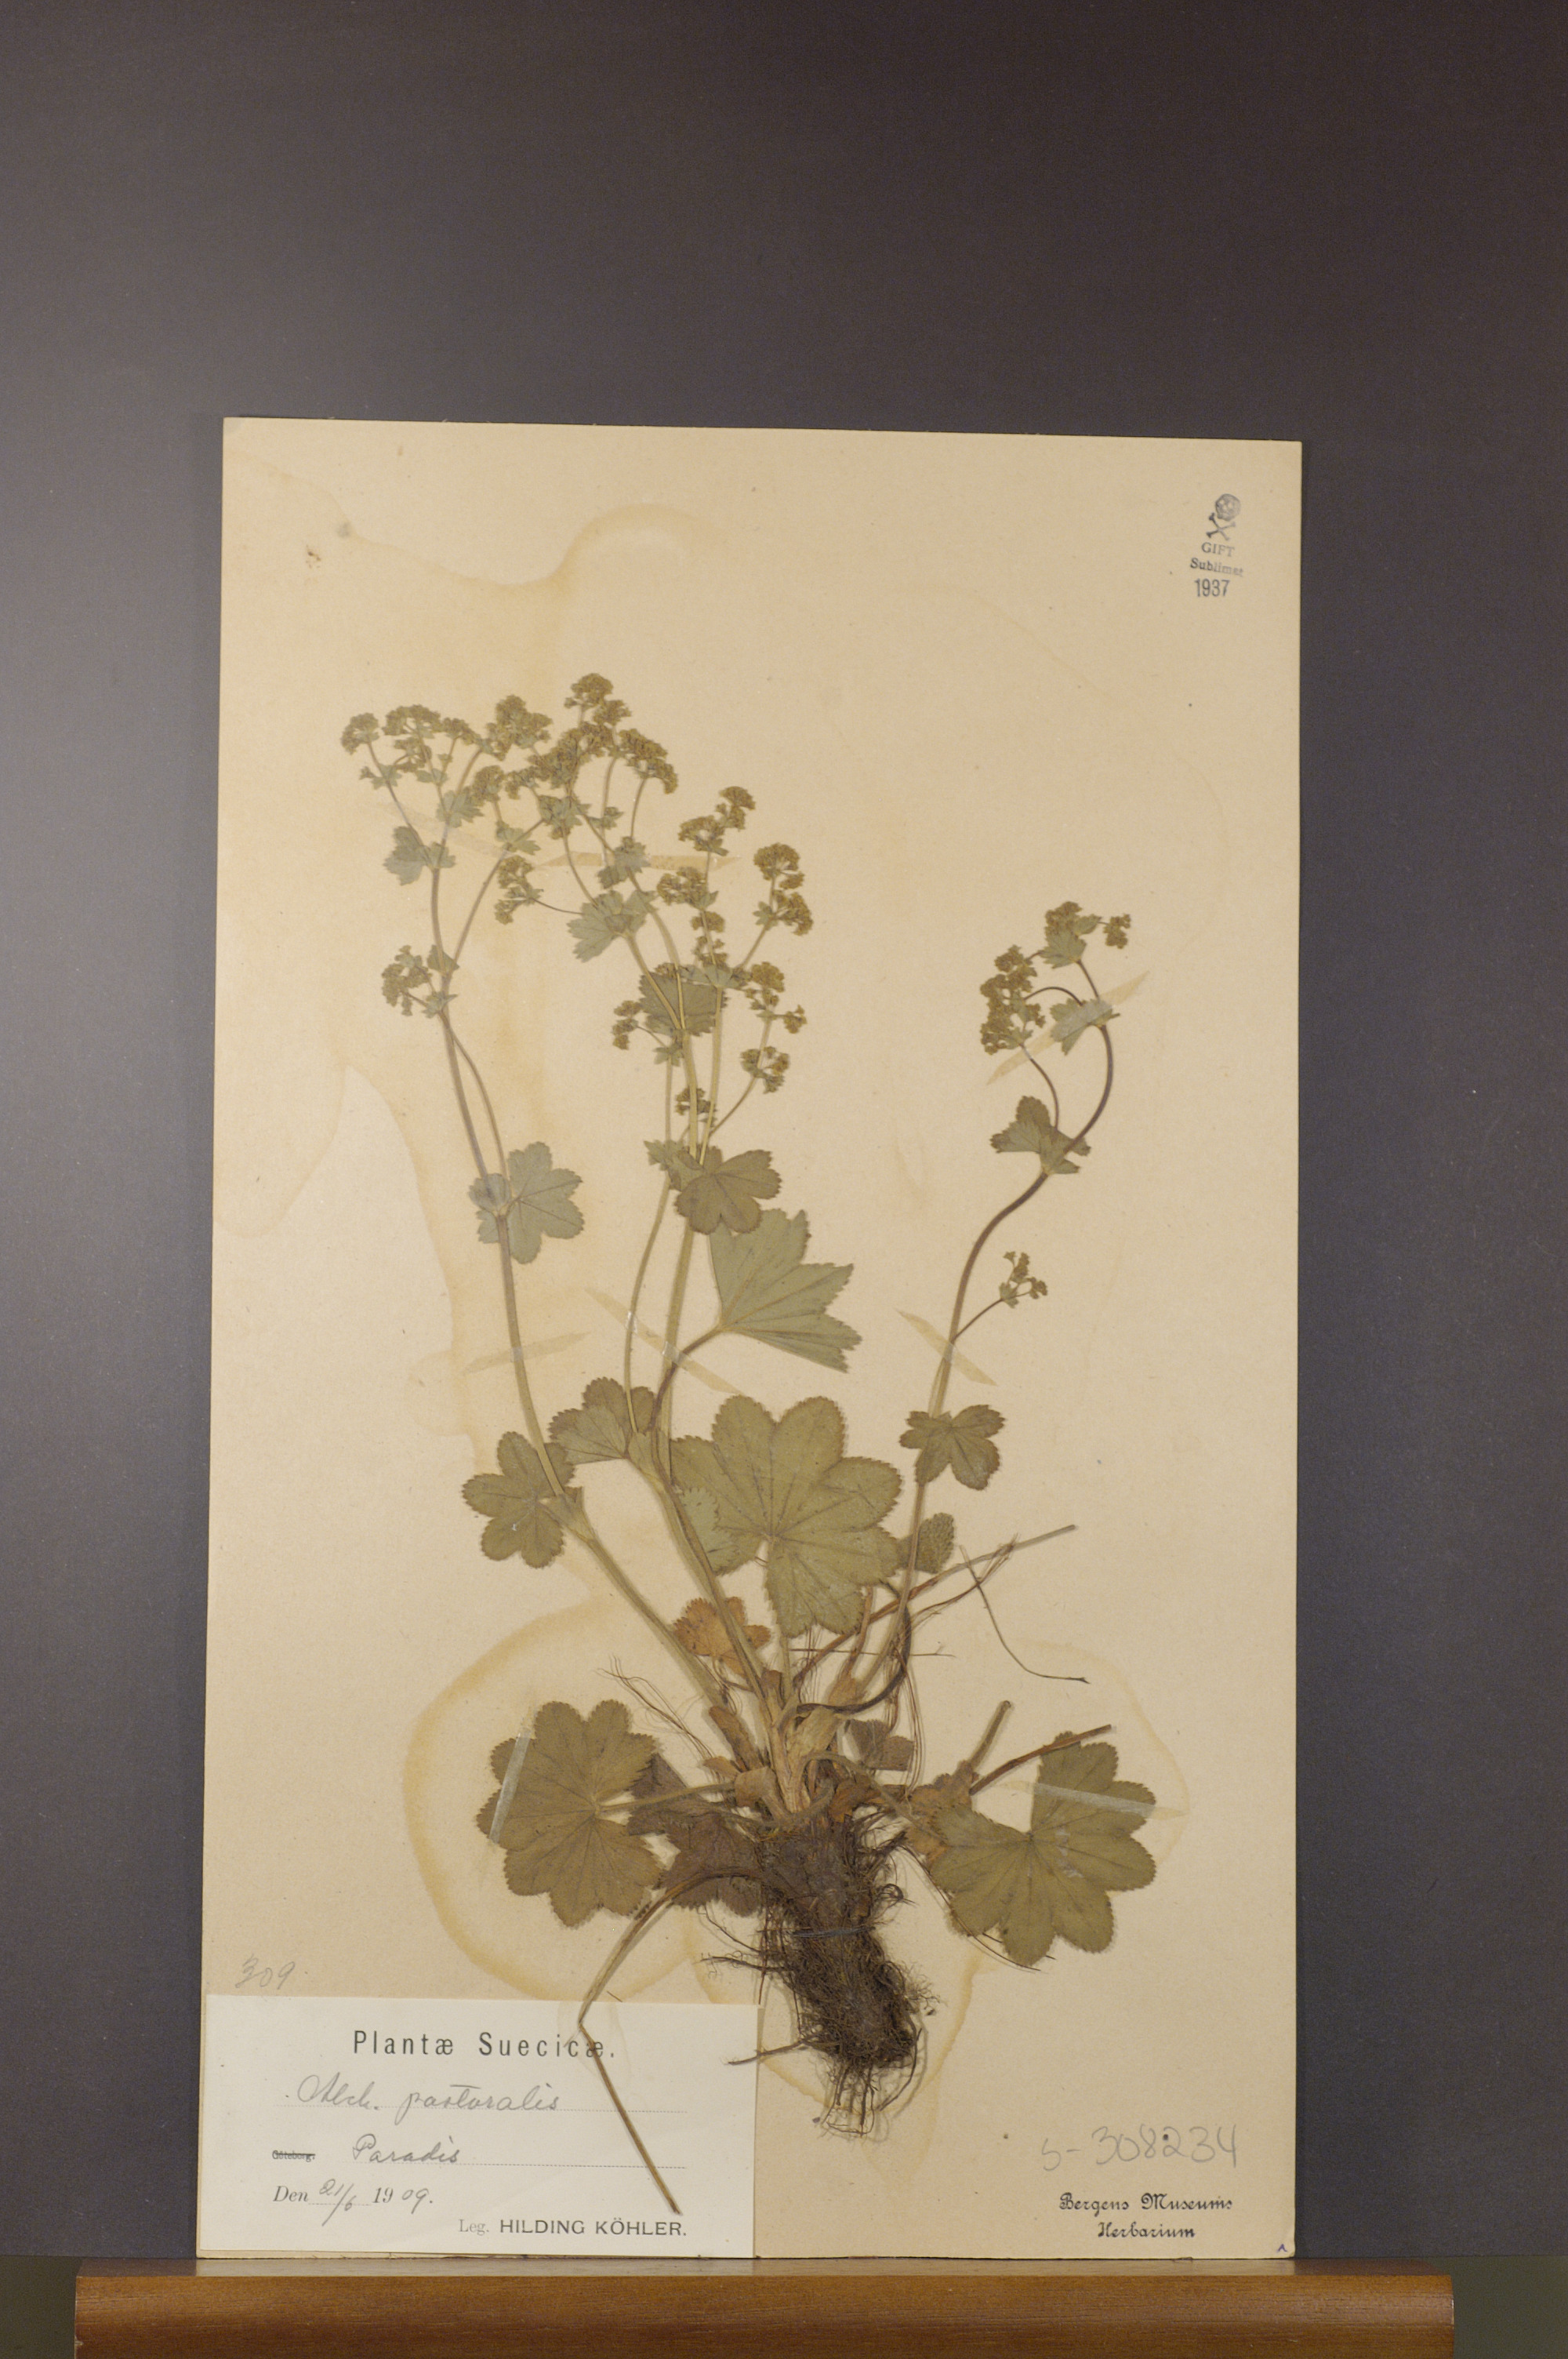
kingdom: Plantae
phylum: Tracheophyta
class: Magnoliopsida
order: Rosales
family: Rosaceae
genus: Alchemilla
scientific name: Alchemilla monticola
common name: Hairy lady's mantle
